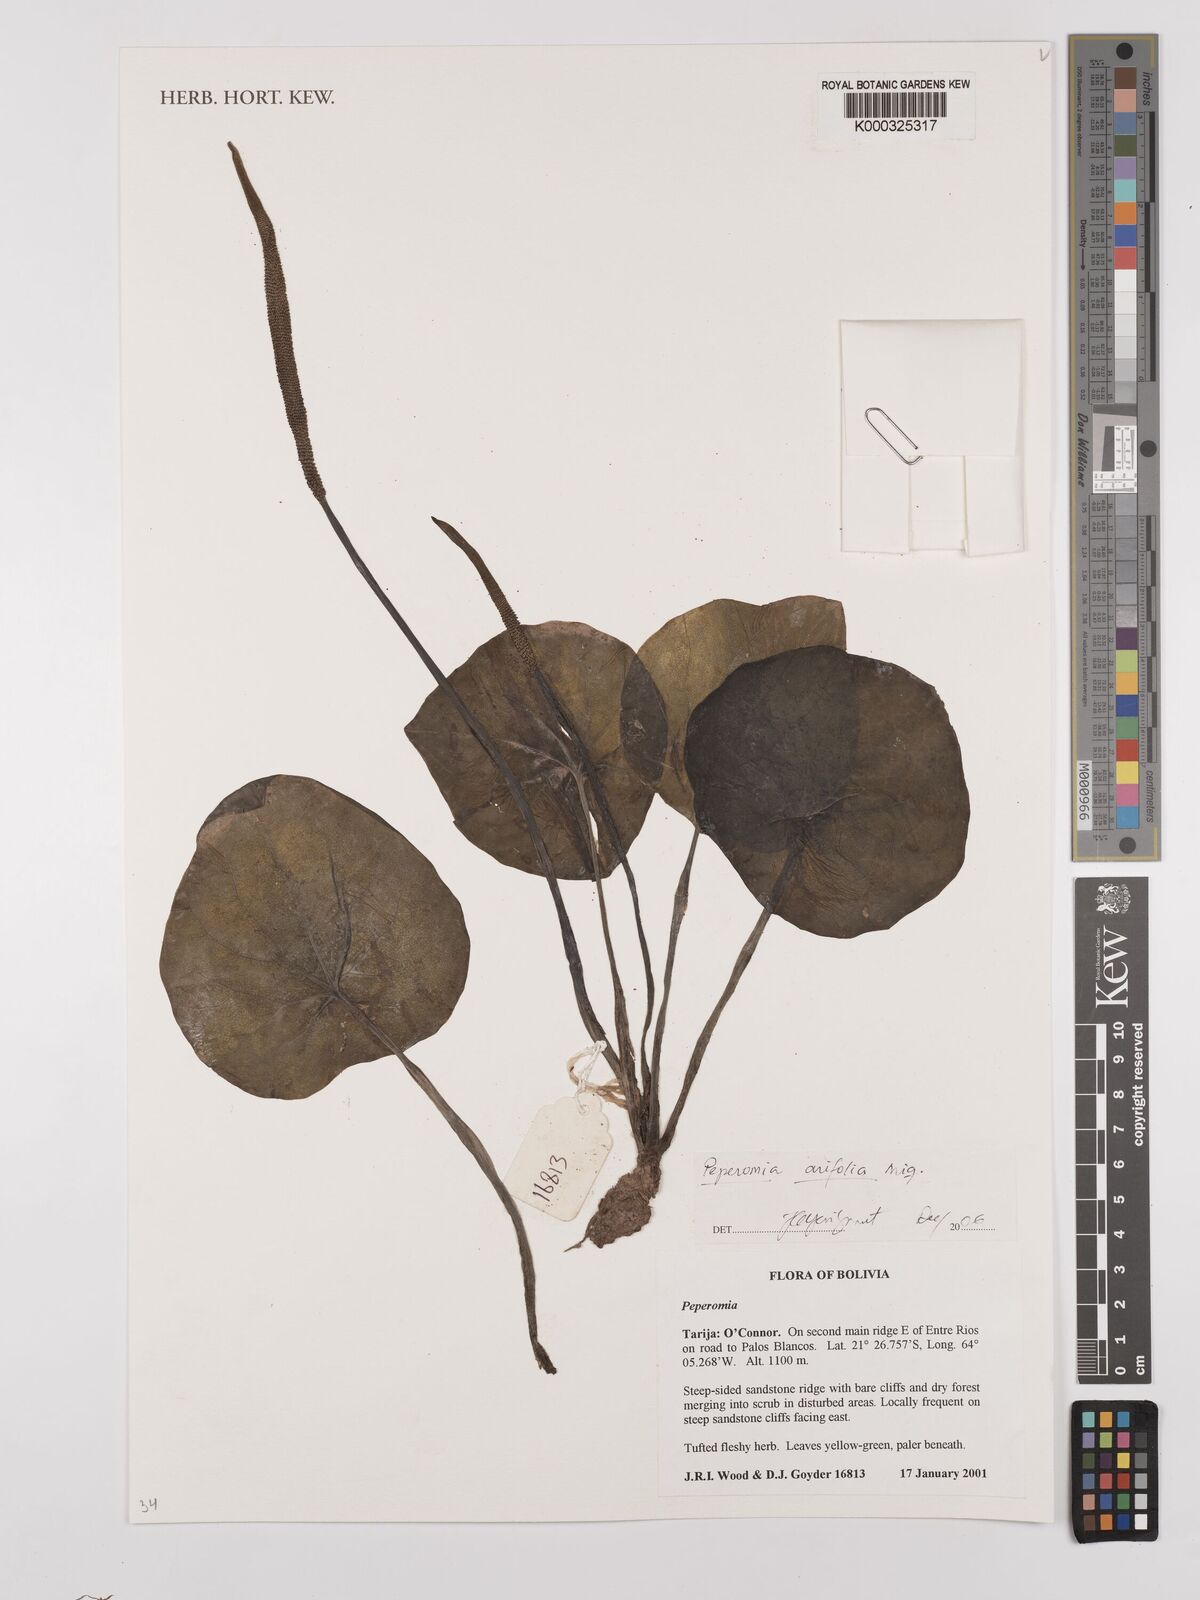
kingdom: Plantae
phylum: Tracheophyta
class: Magnoliopsida
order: Piperales
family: Piperaceae
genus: Peperomia
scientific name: Peperomia arifolia
